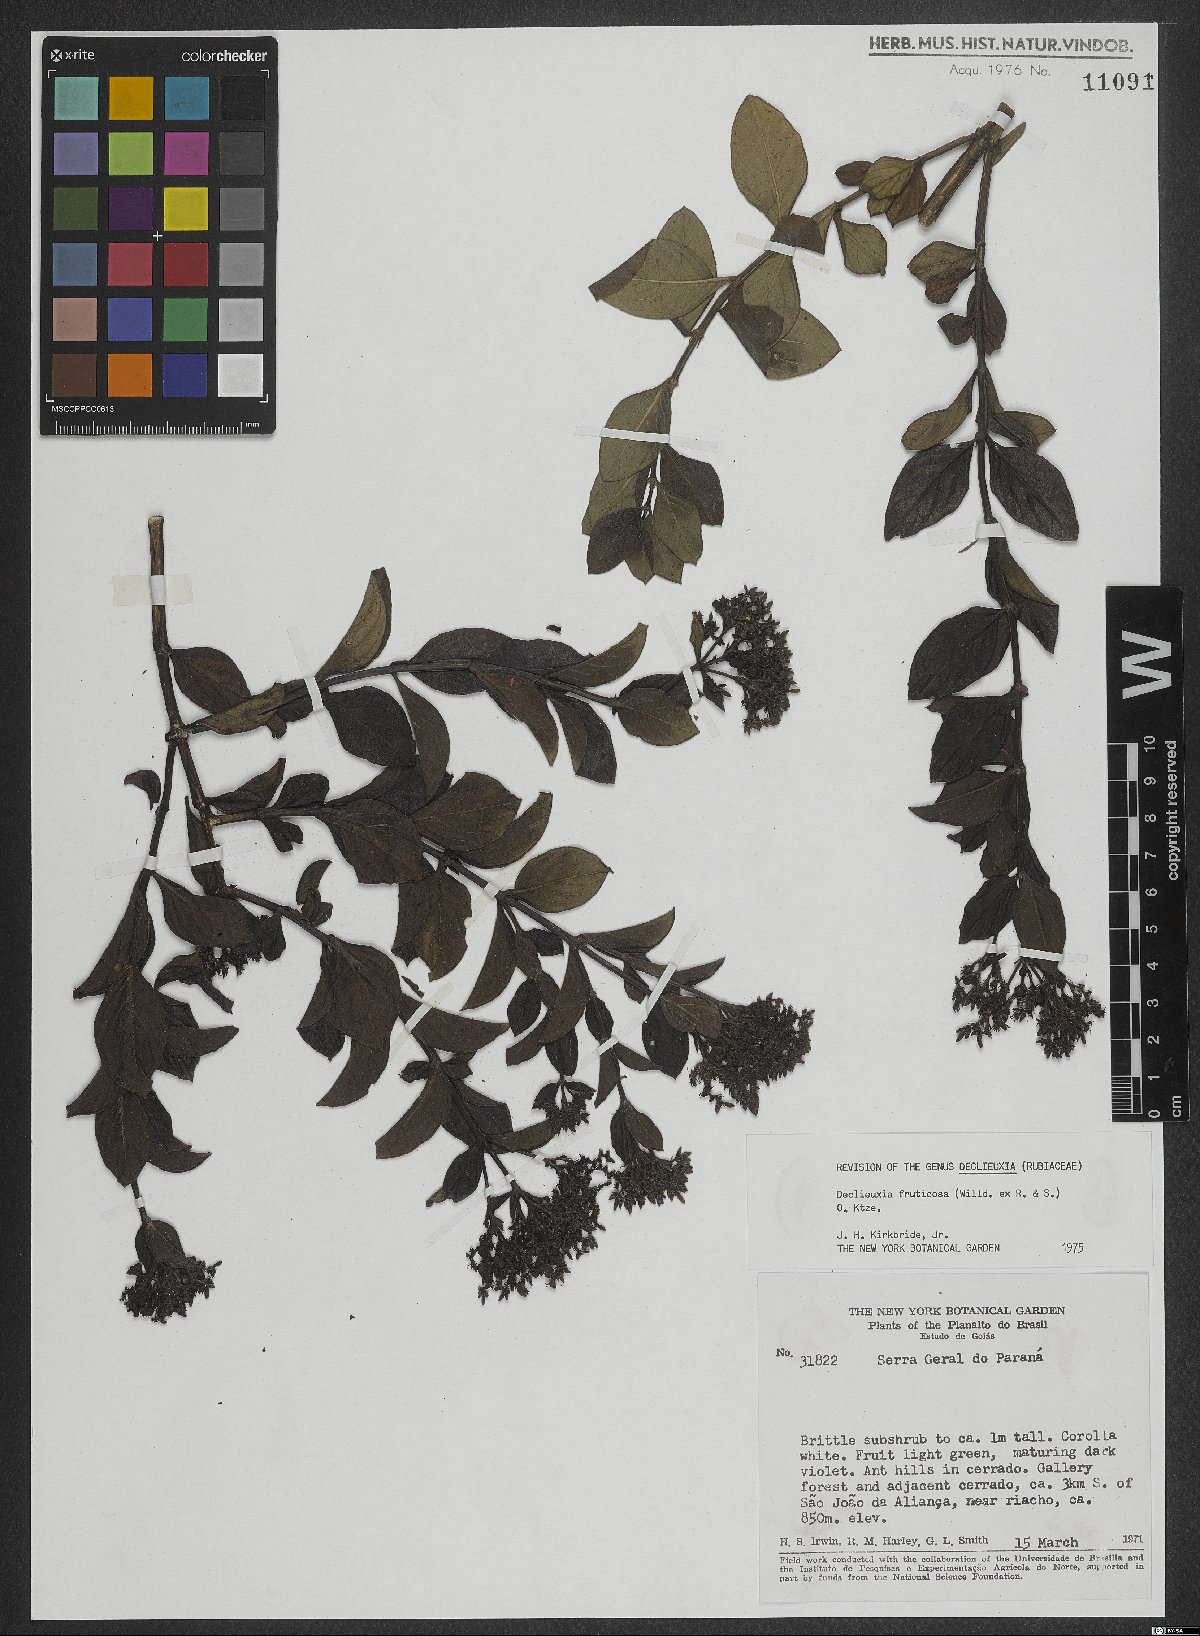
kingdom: Plantae
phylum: Tracheophyta
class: Magnoliopsida
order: Gentianales
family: Rubiaceae
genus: Declieuxia
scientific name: Declieuxia fruticosa
